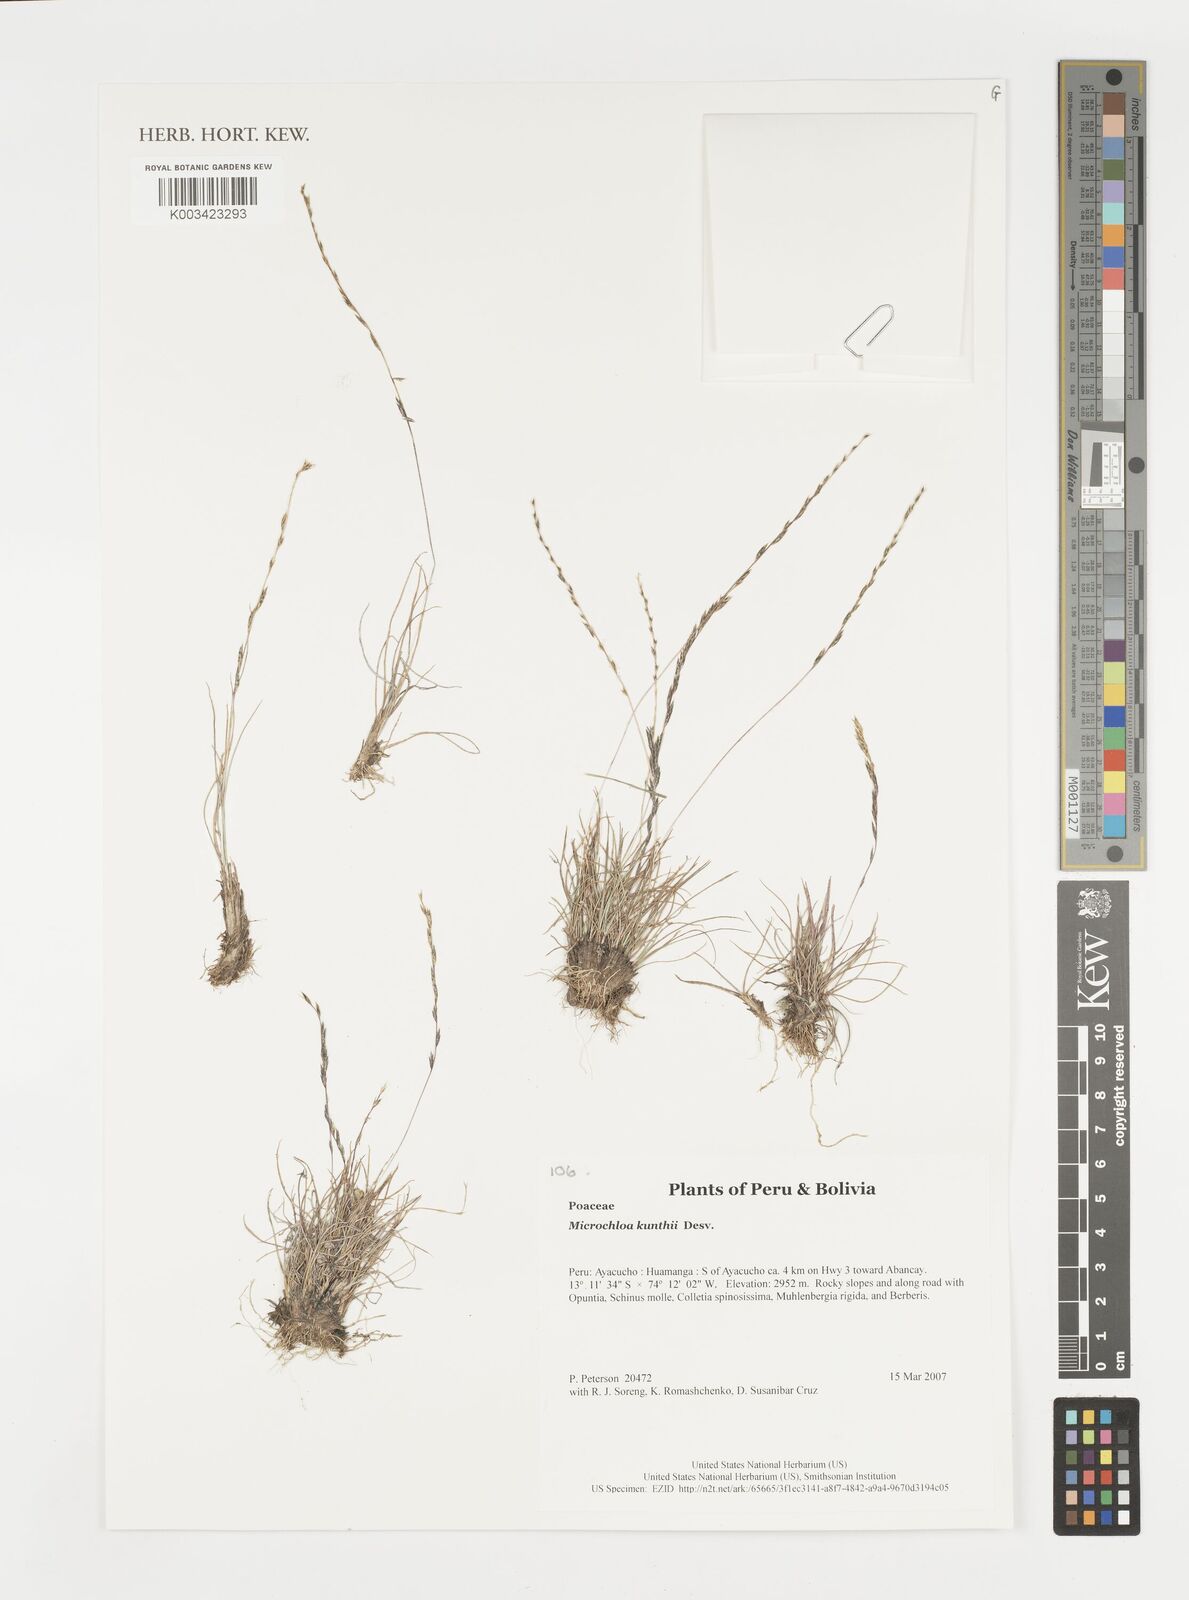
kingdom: Plantae
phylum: Tracheophyta
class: Liliopsida
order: Poales
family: Poaceae
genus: Microchloa
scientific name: Microchloa kunthii
